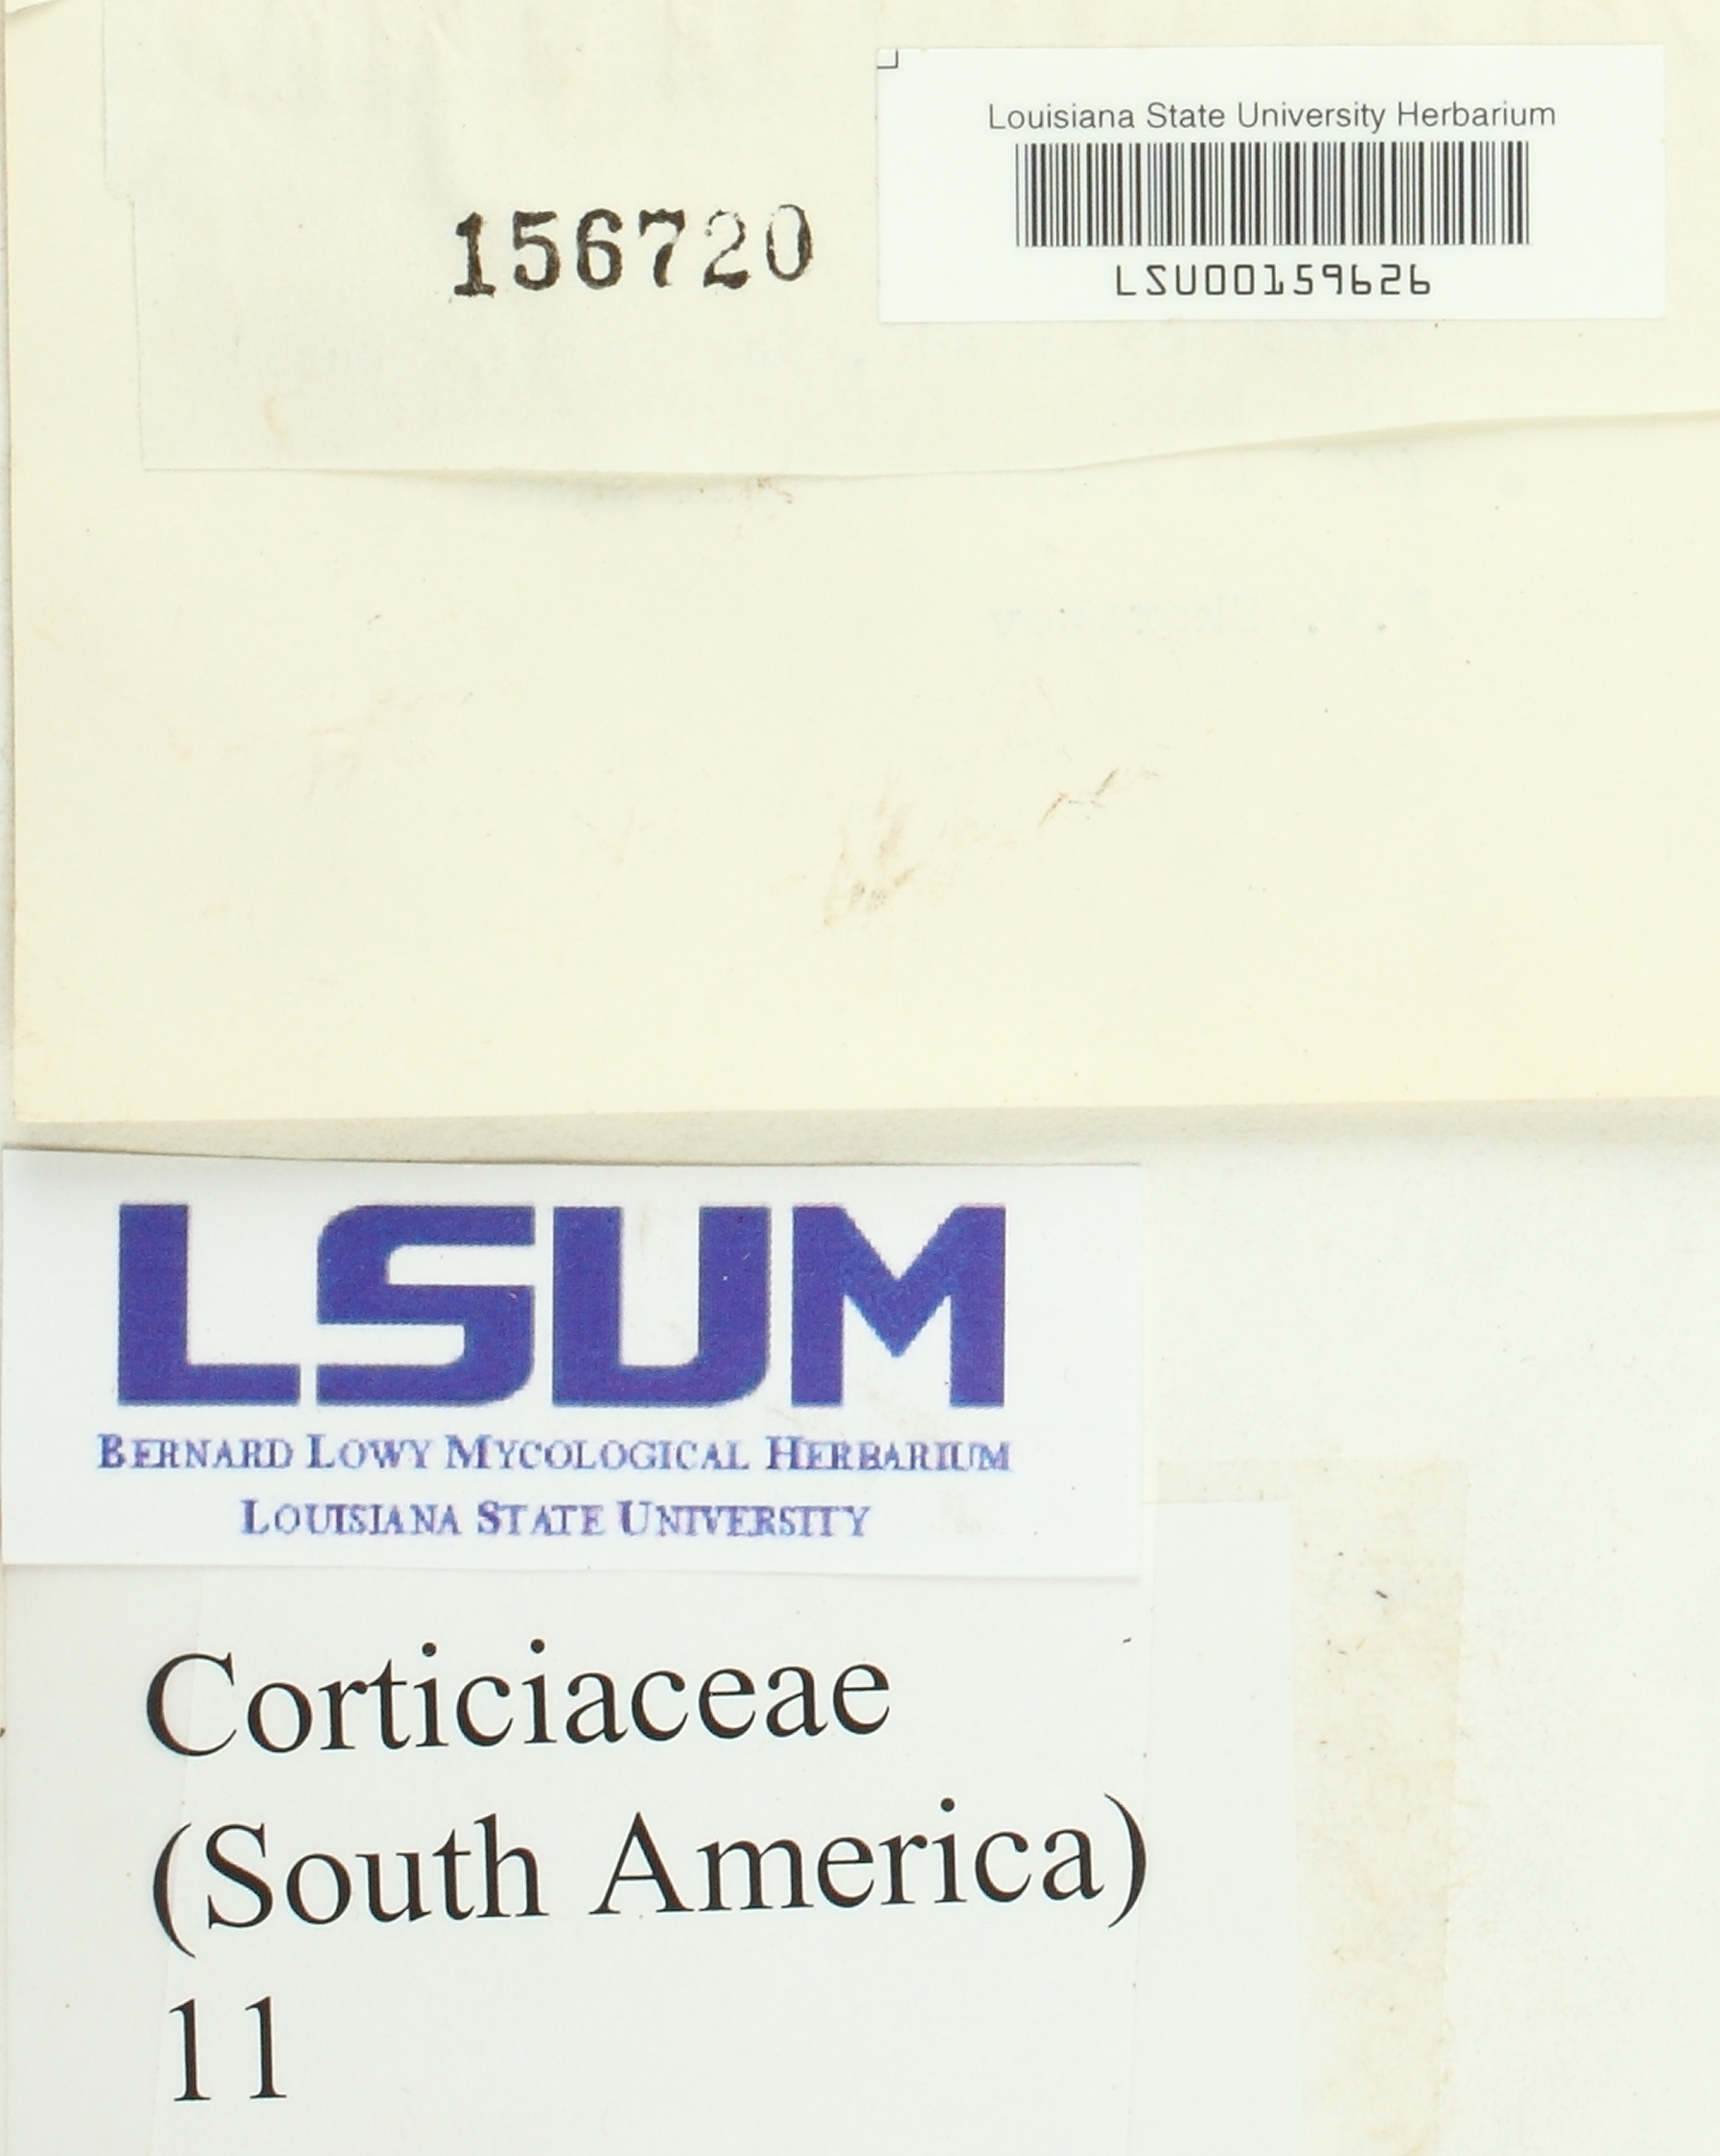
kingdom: Fungi
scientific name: Fungi
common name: Fungi
